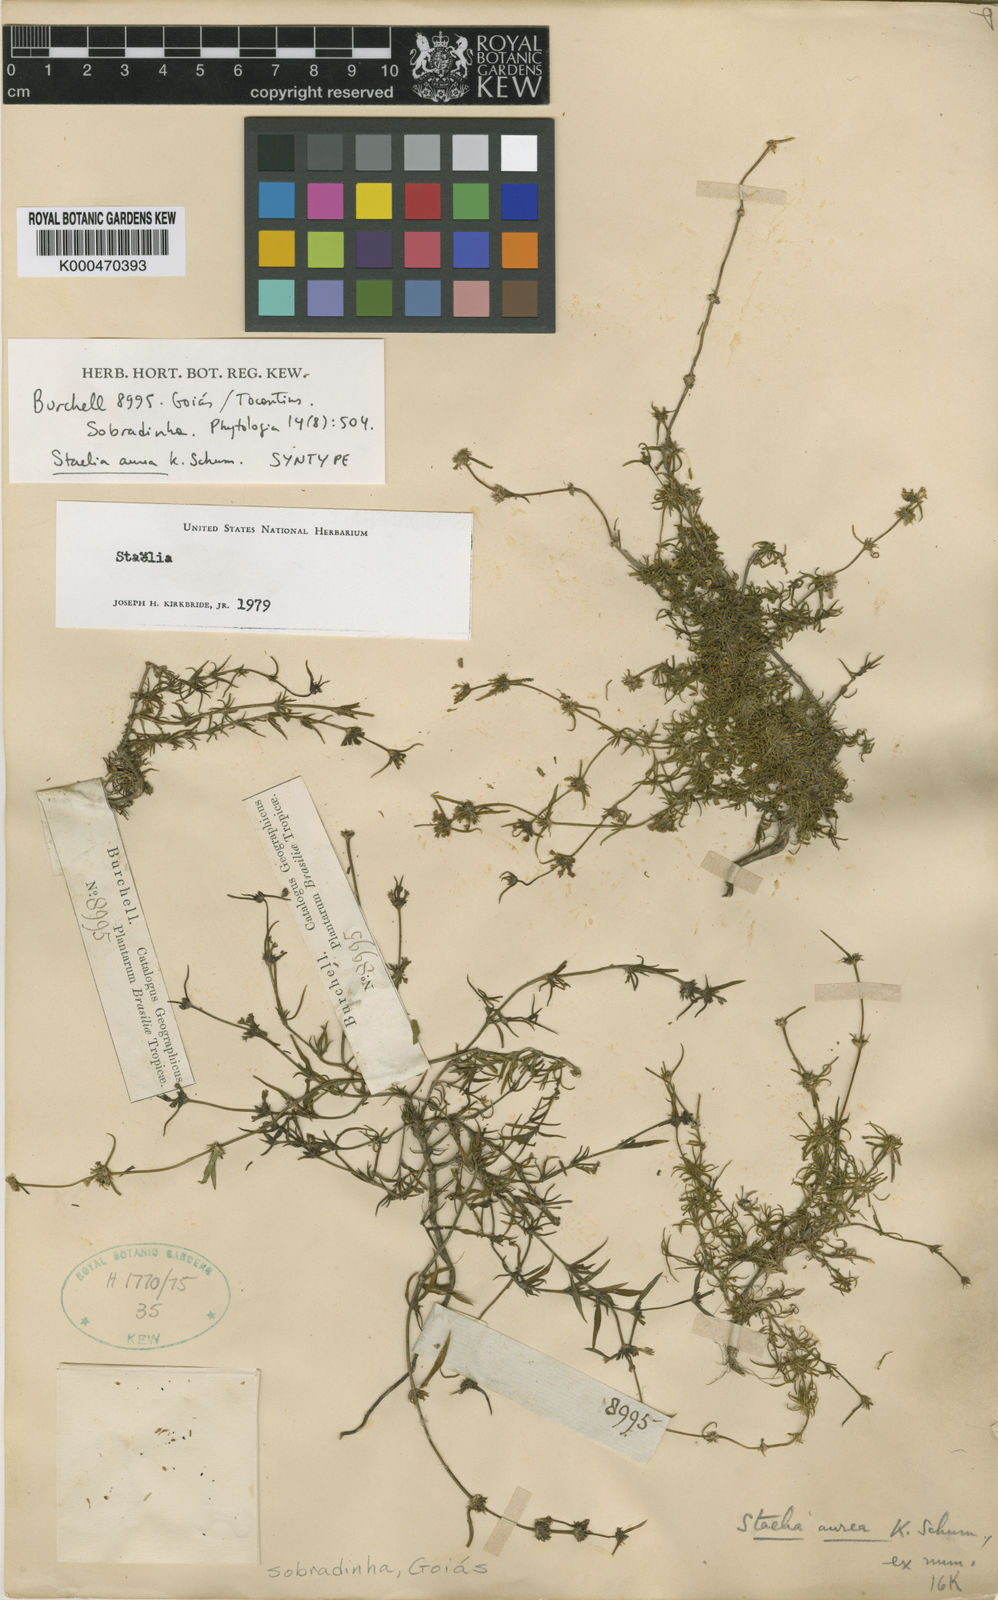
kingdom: Plantae
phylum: Tracheophyta
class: Magnoliopsida
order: Gentianales
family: Rubiaceae
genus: Staelia
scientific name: Staelia aurea
